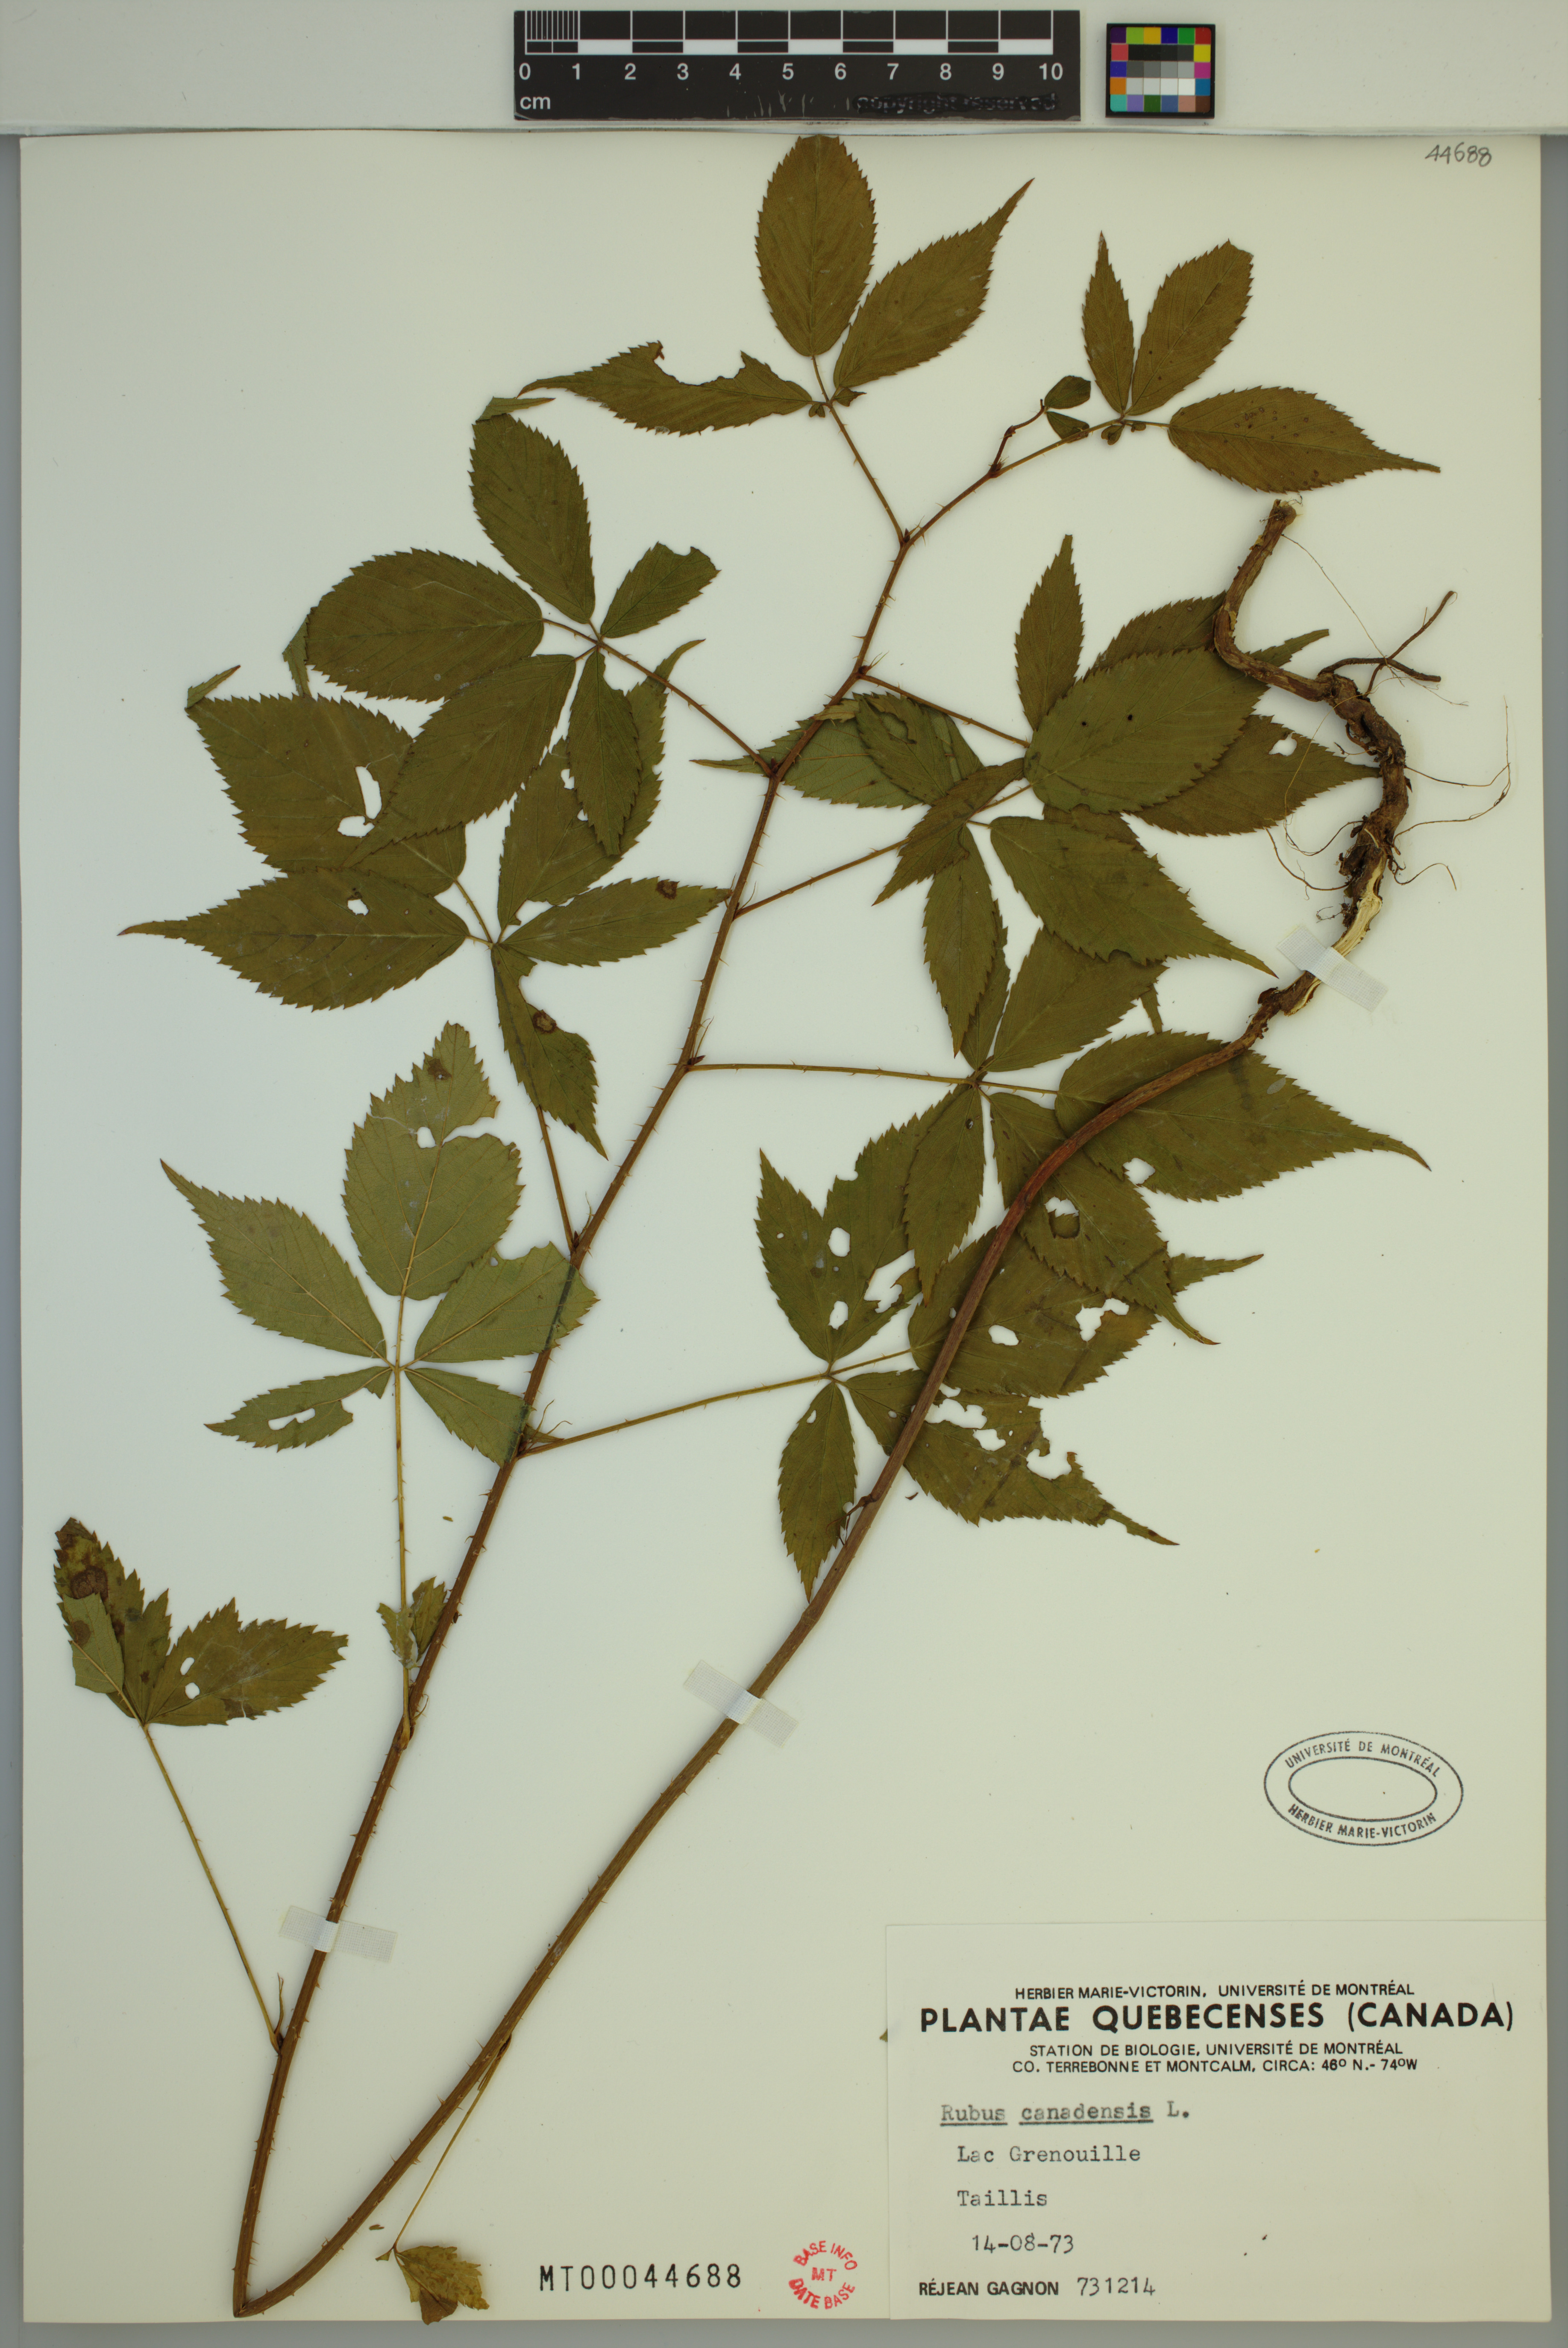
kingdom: Plantae
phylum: Tracheophyta
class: Magnoliopsida
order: Rosales
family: Rosaceae
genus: Rubus
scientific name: Rubus canadensis
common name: Smooth blackberry
